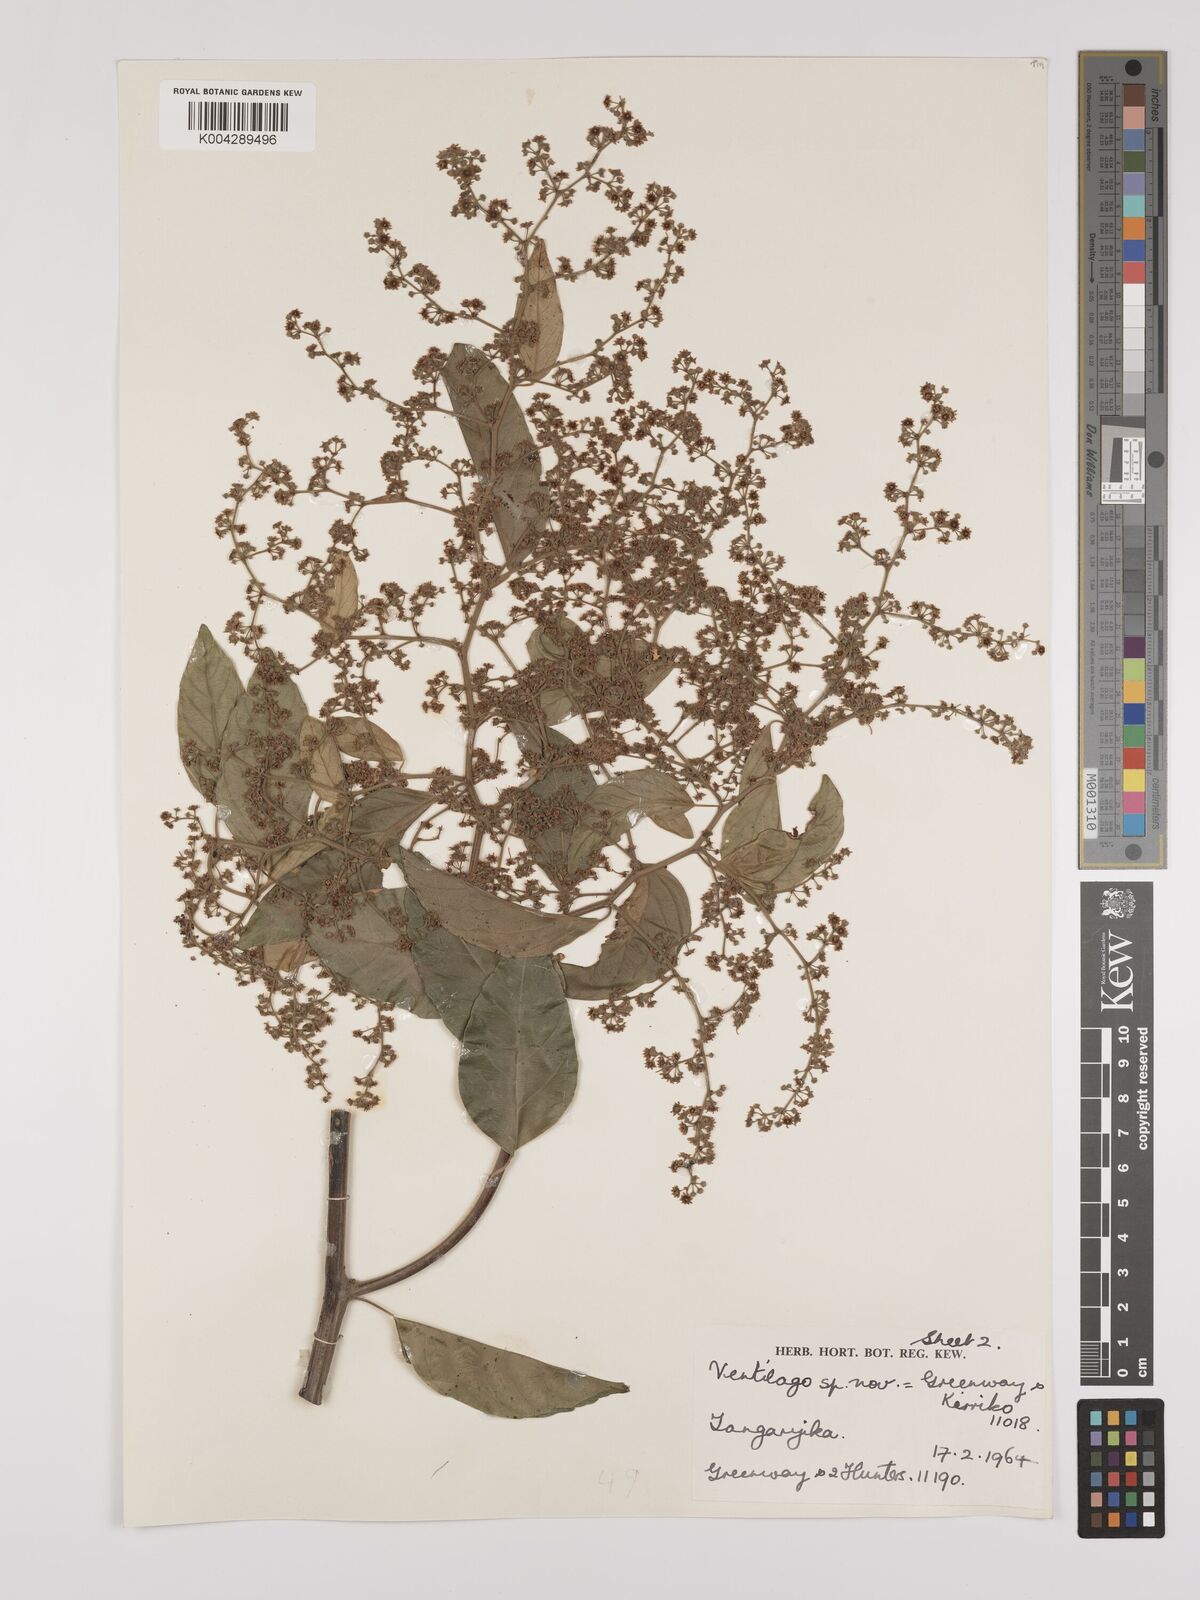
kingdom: Plantae
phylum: Tracheophyta
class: Magnoliopsida
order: Rosales
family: Rhamnaceae
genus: Ventilago
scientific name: Ventilago diffusa
